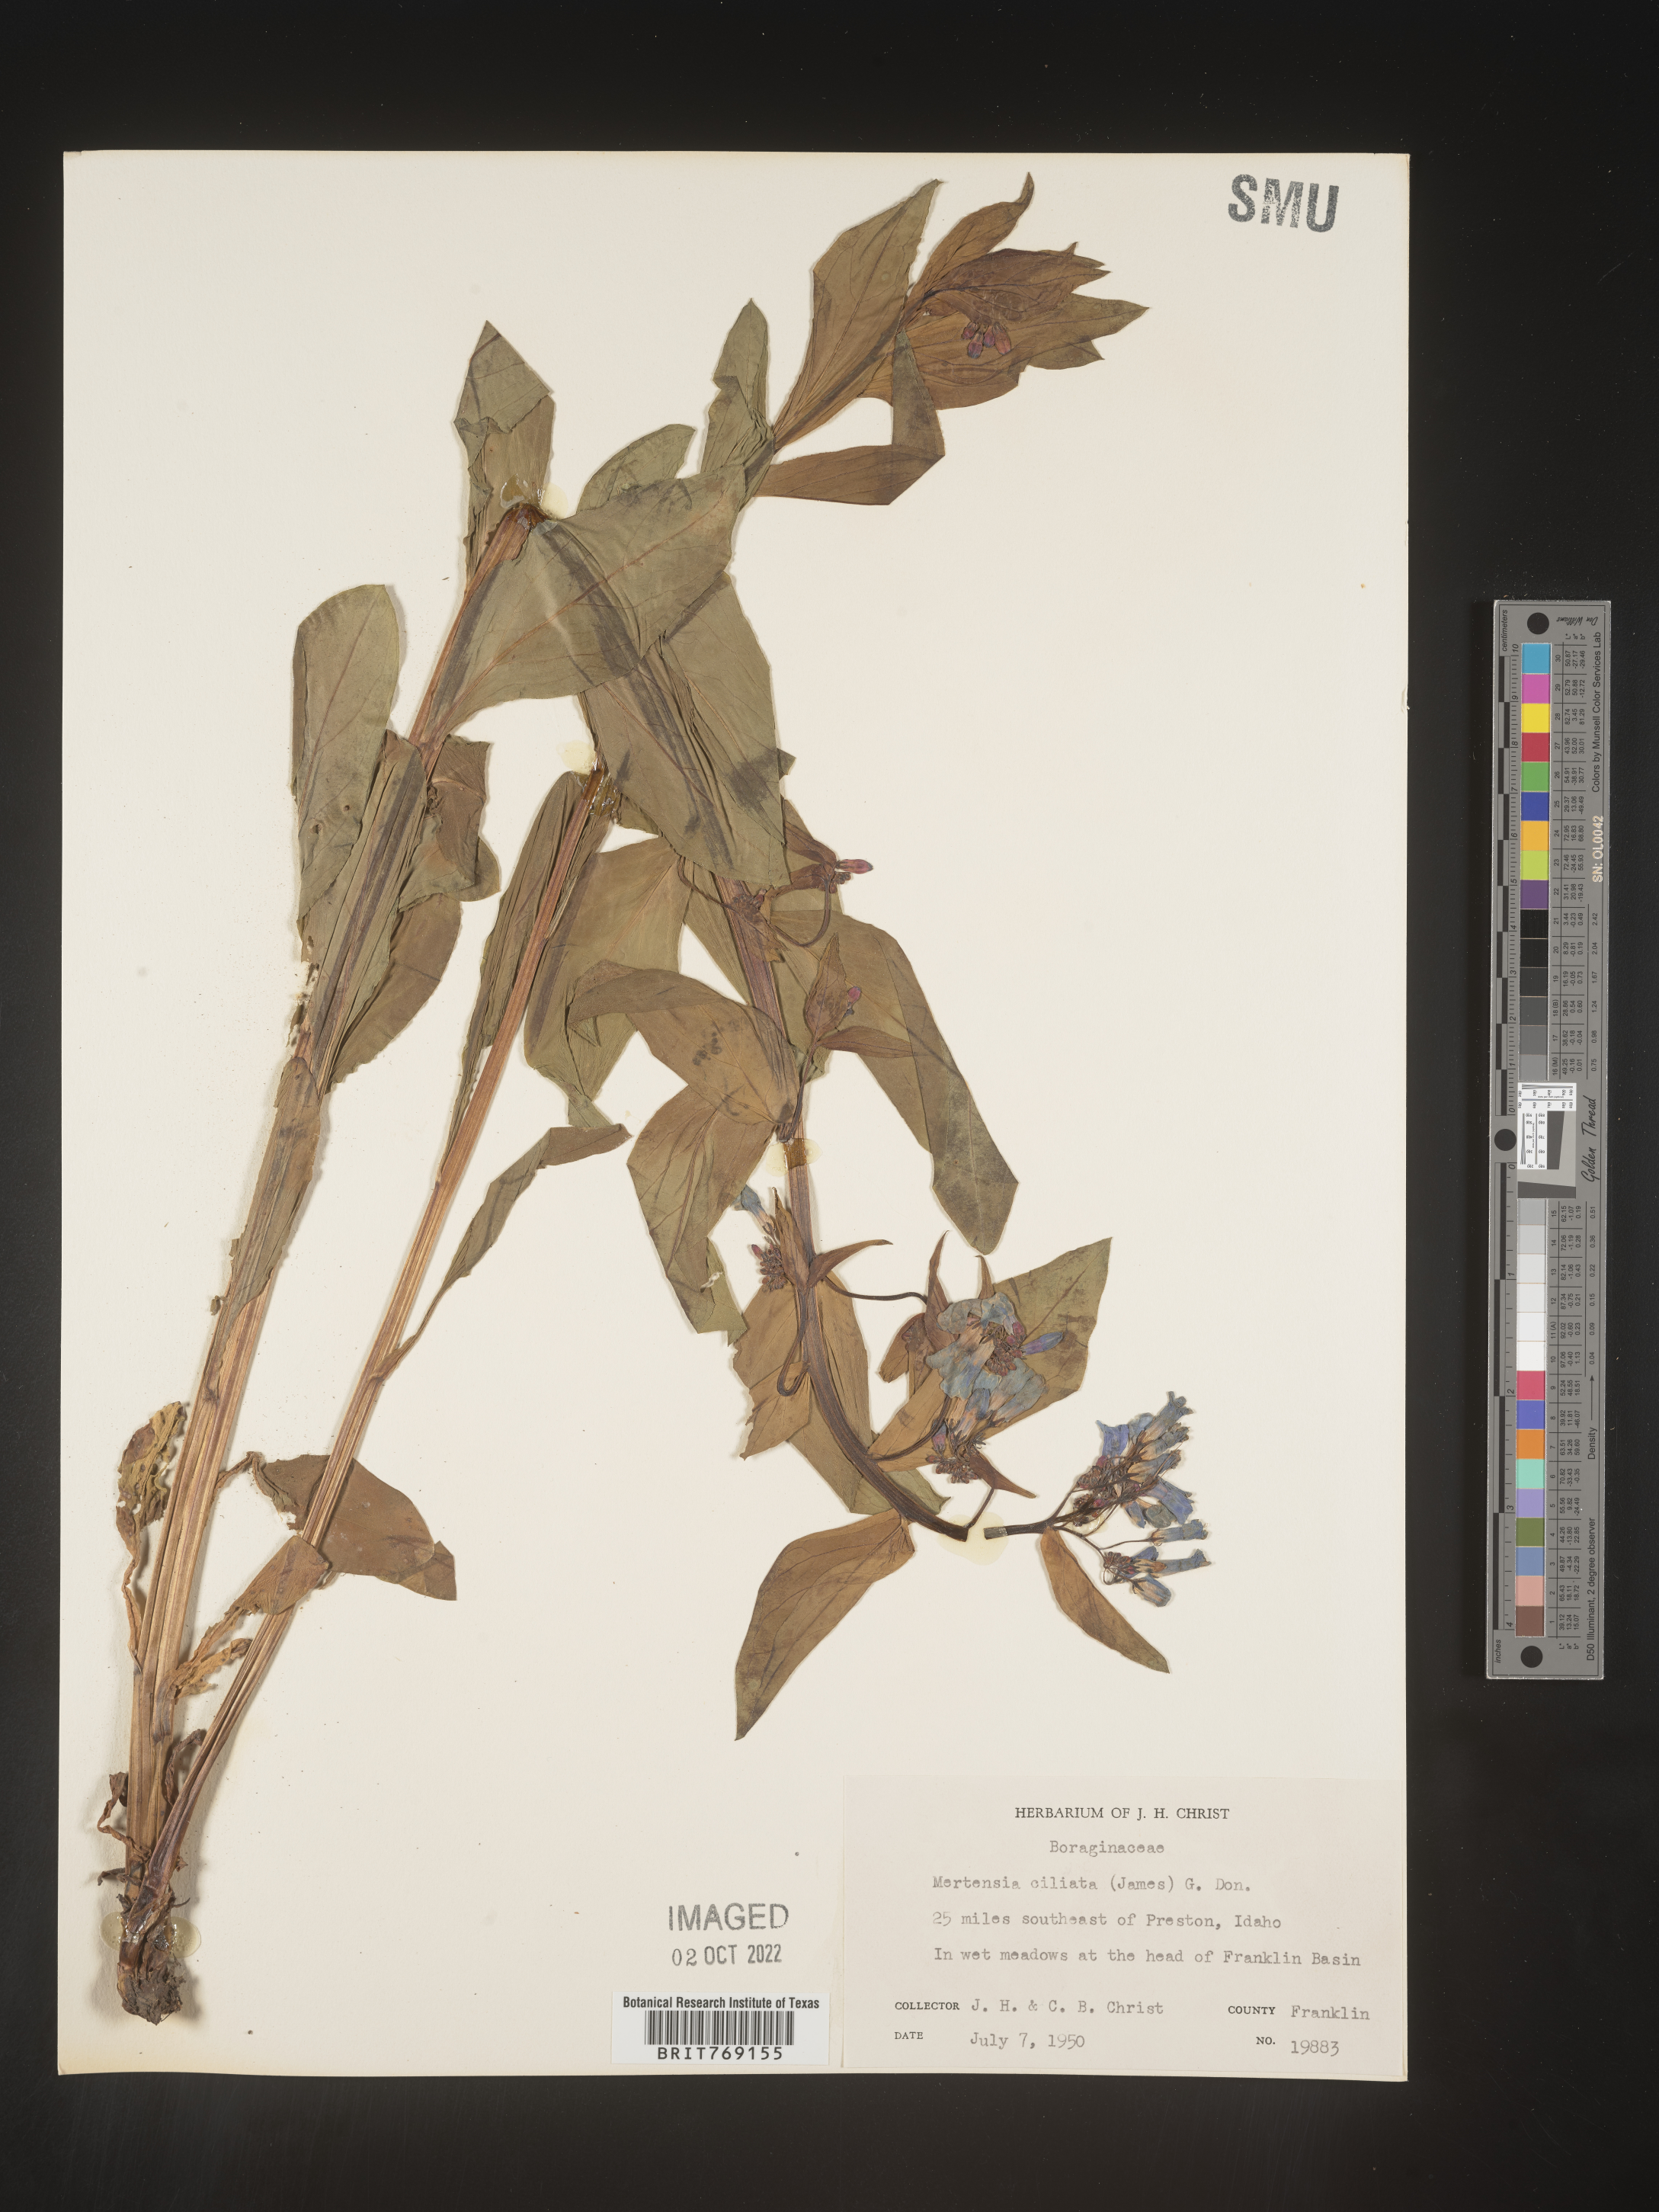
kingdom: Plantae
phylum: Tracheophyta
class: Magnoliopsida
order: Boraginales
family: Boraginaceae
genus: Mertensia
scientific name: Mertensia
